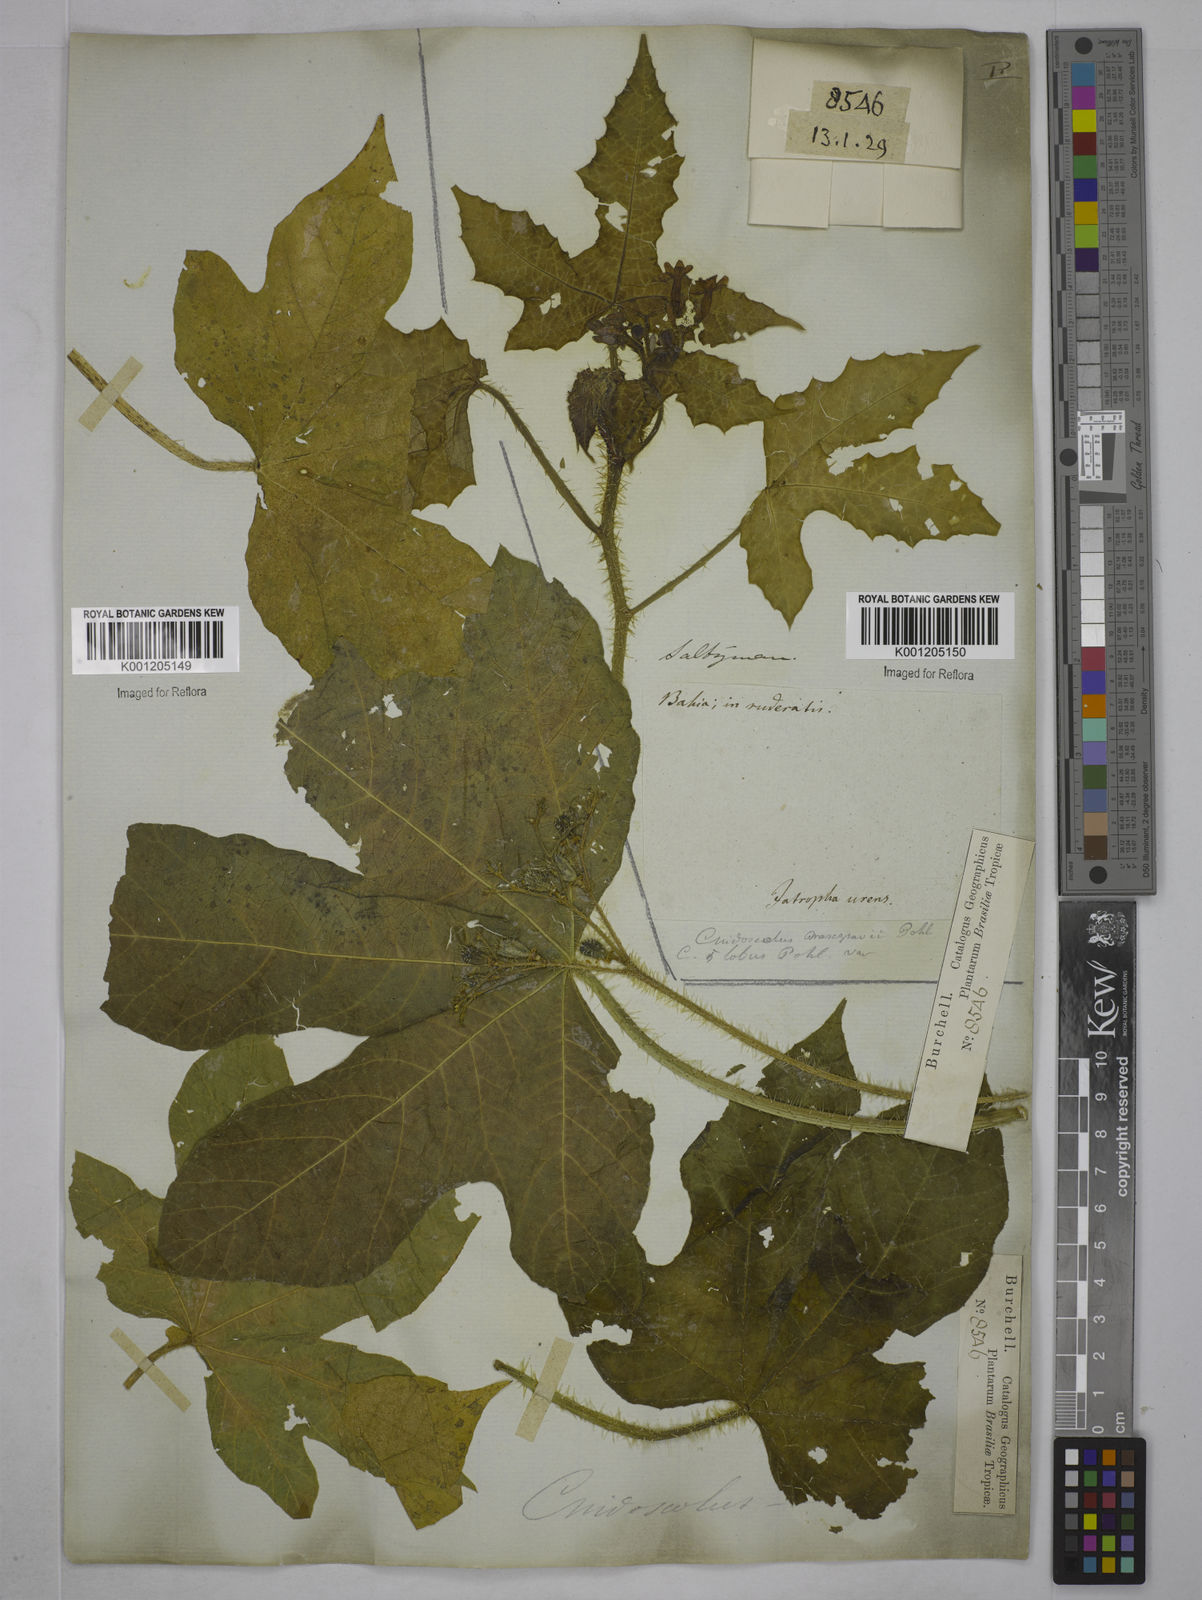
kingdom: Plantae
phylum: Tracheophyta
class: Magnoliopsida
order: Malpighiales
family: Euphorbiaceae
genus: Cnidoscolus
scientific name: Cnidoscolus urens
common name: Bull-nettle
